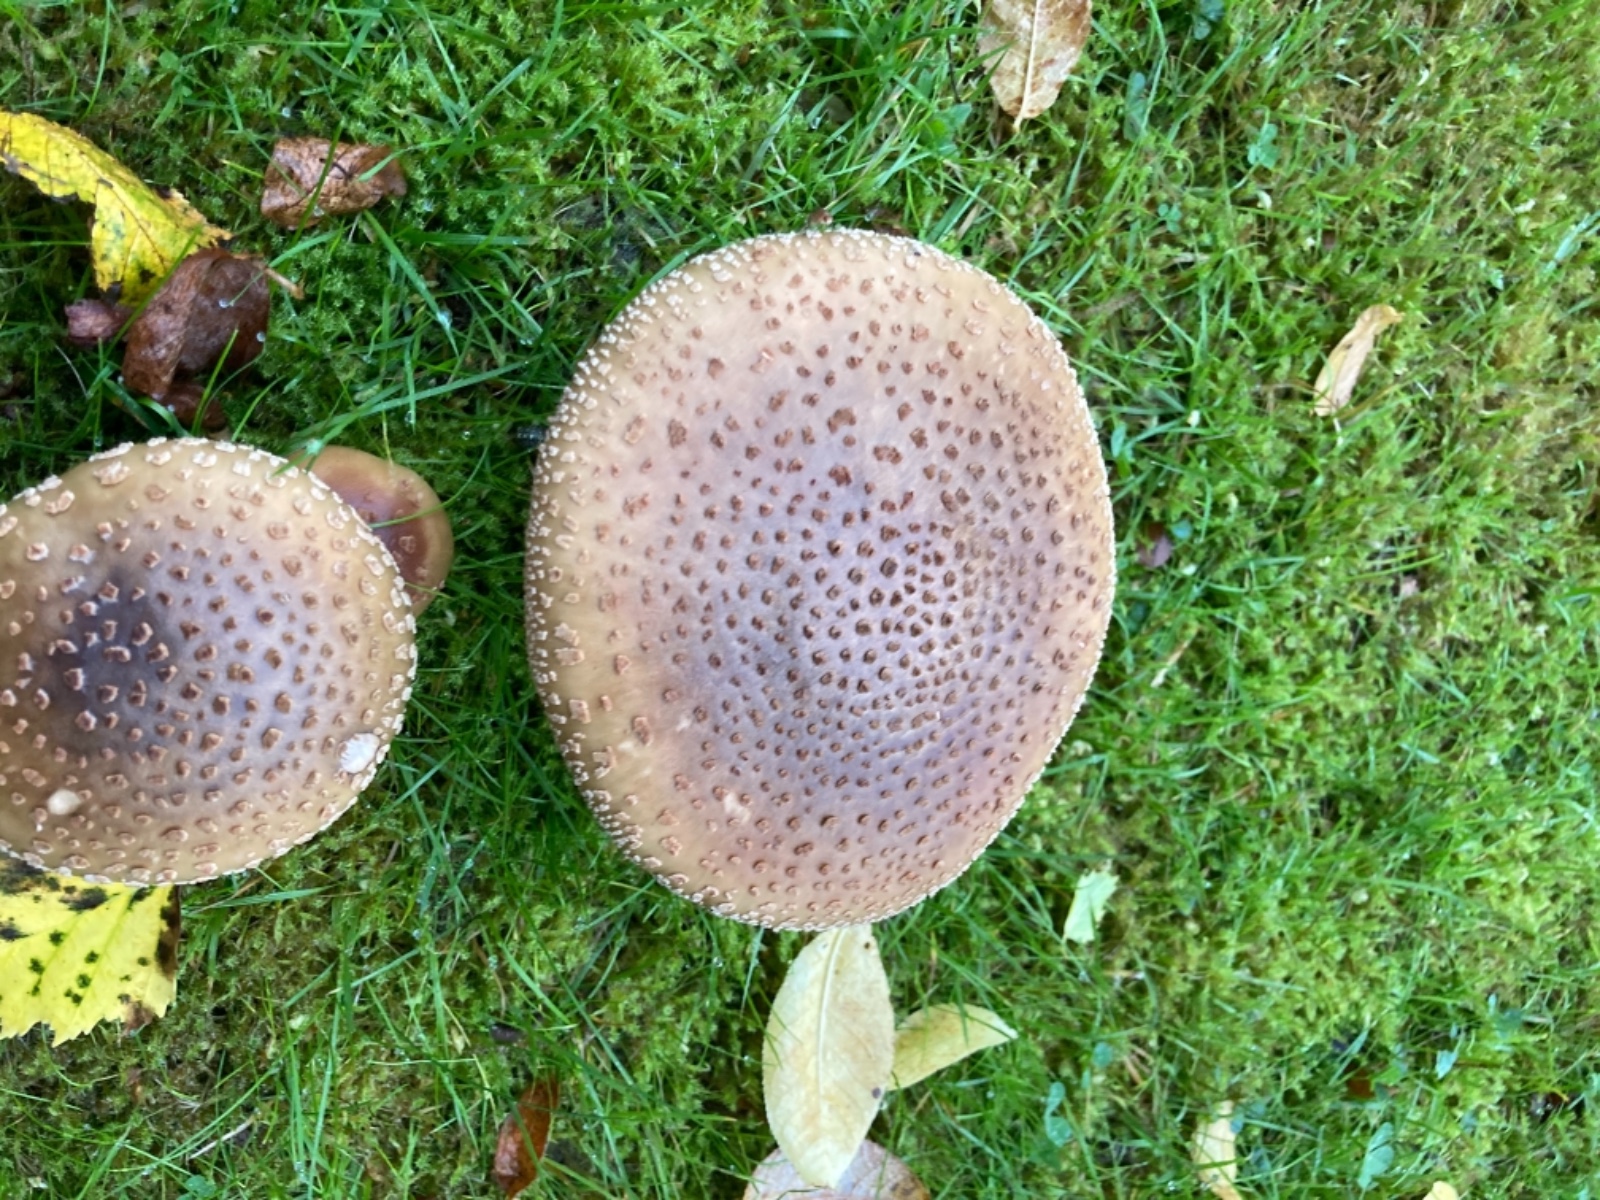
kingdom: Fungi
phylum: Basidiomycota
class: Agaricomycetes
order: Agaricales
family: Amanitaceae
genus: Amanita
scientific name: Amanita pantherina
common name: panter-fluesvamp
